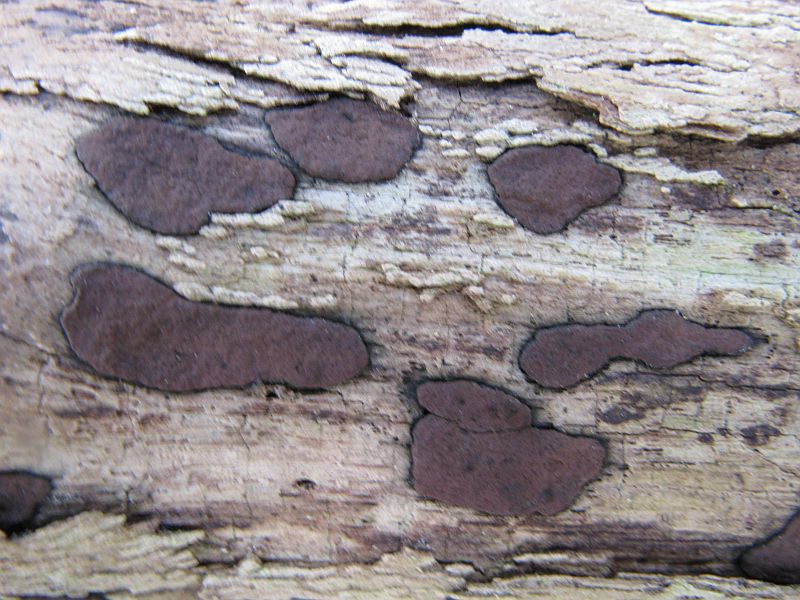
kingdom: Fungi
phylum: Ascomycota
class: Sordariomycetes
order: Xylariales
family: Hypoxylaceae
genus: Hypoxylon
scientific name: Hypoxylon petriniae
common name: nedsænket kulbær
